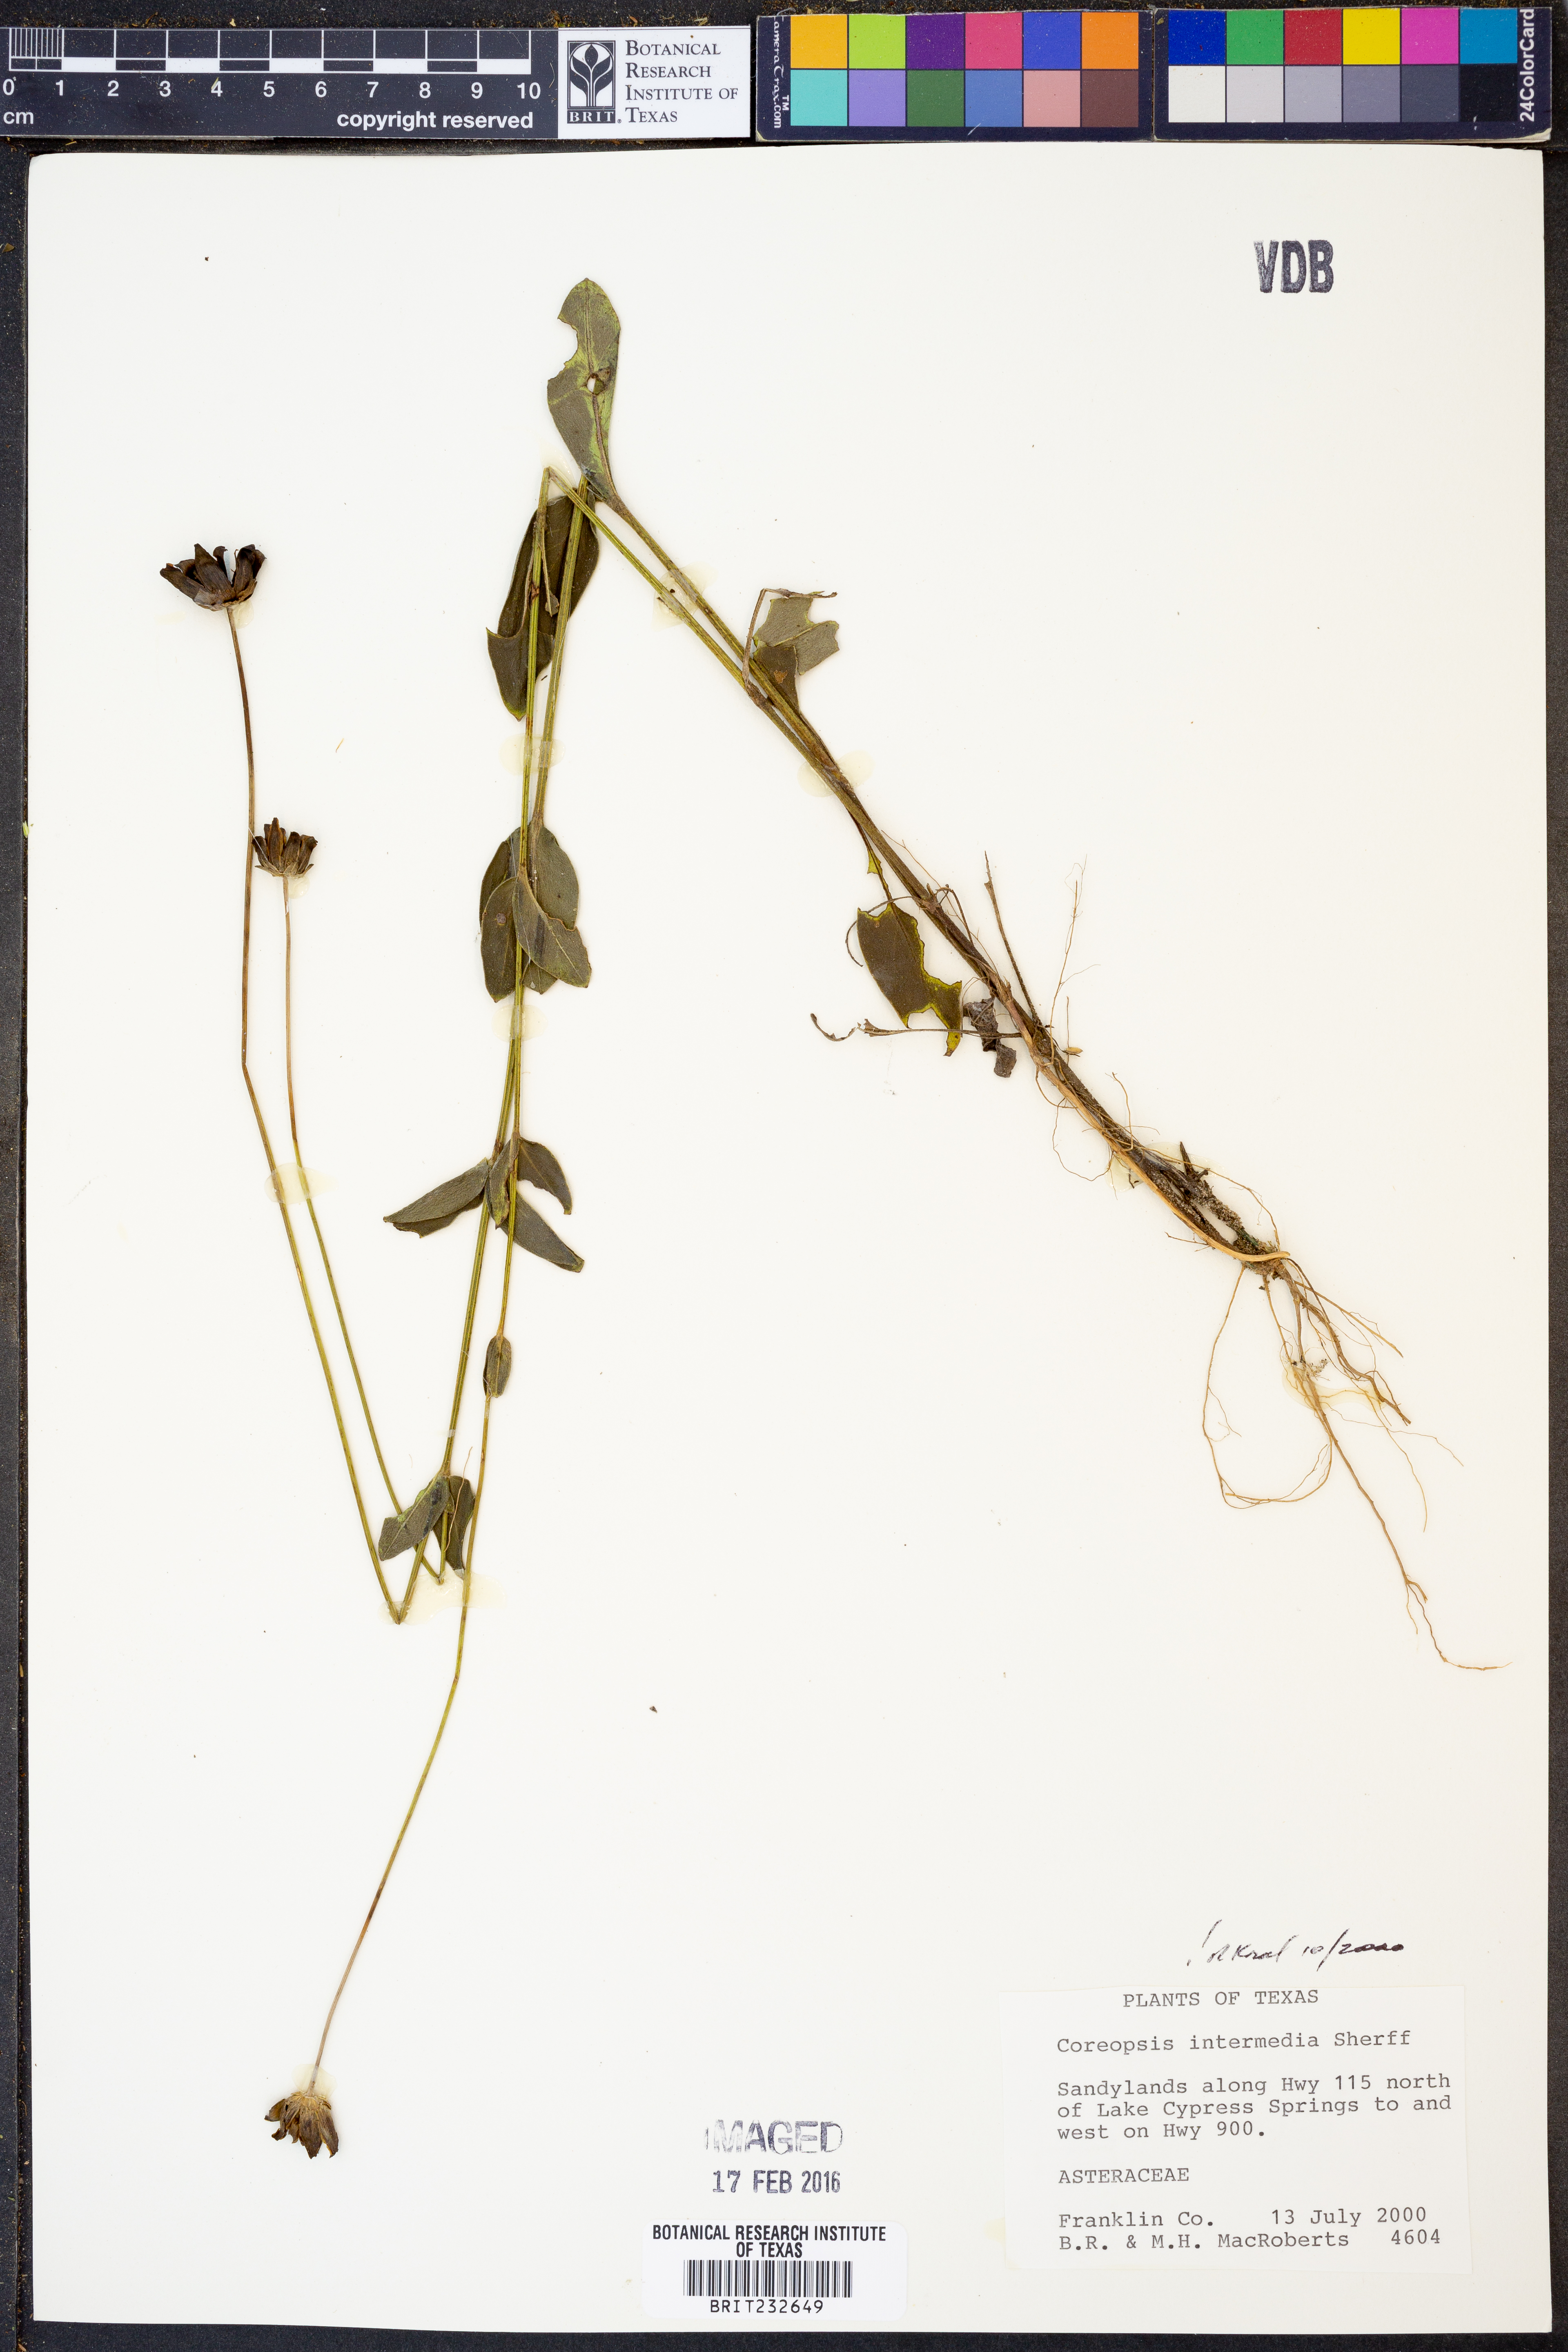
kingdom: Plantae
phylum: Tracheophyta
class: Magnoliopsida
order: Asterales
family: Asteraceae
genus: Coreopsis
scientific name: Coreopsis intermedia
